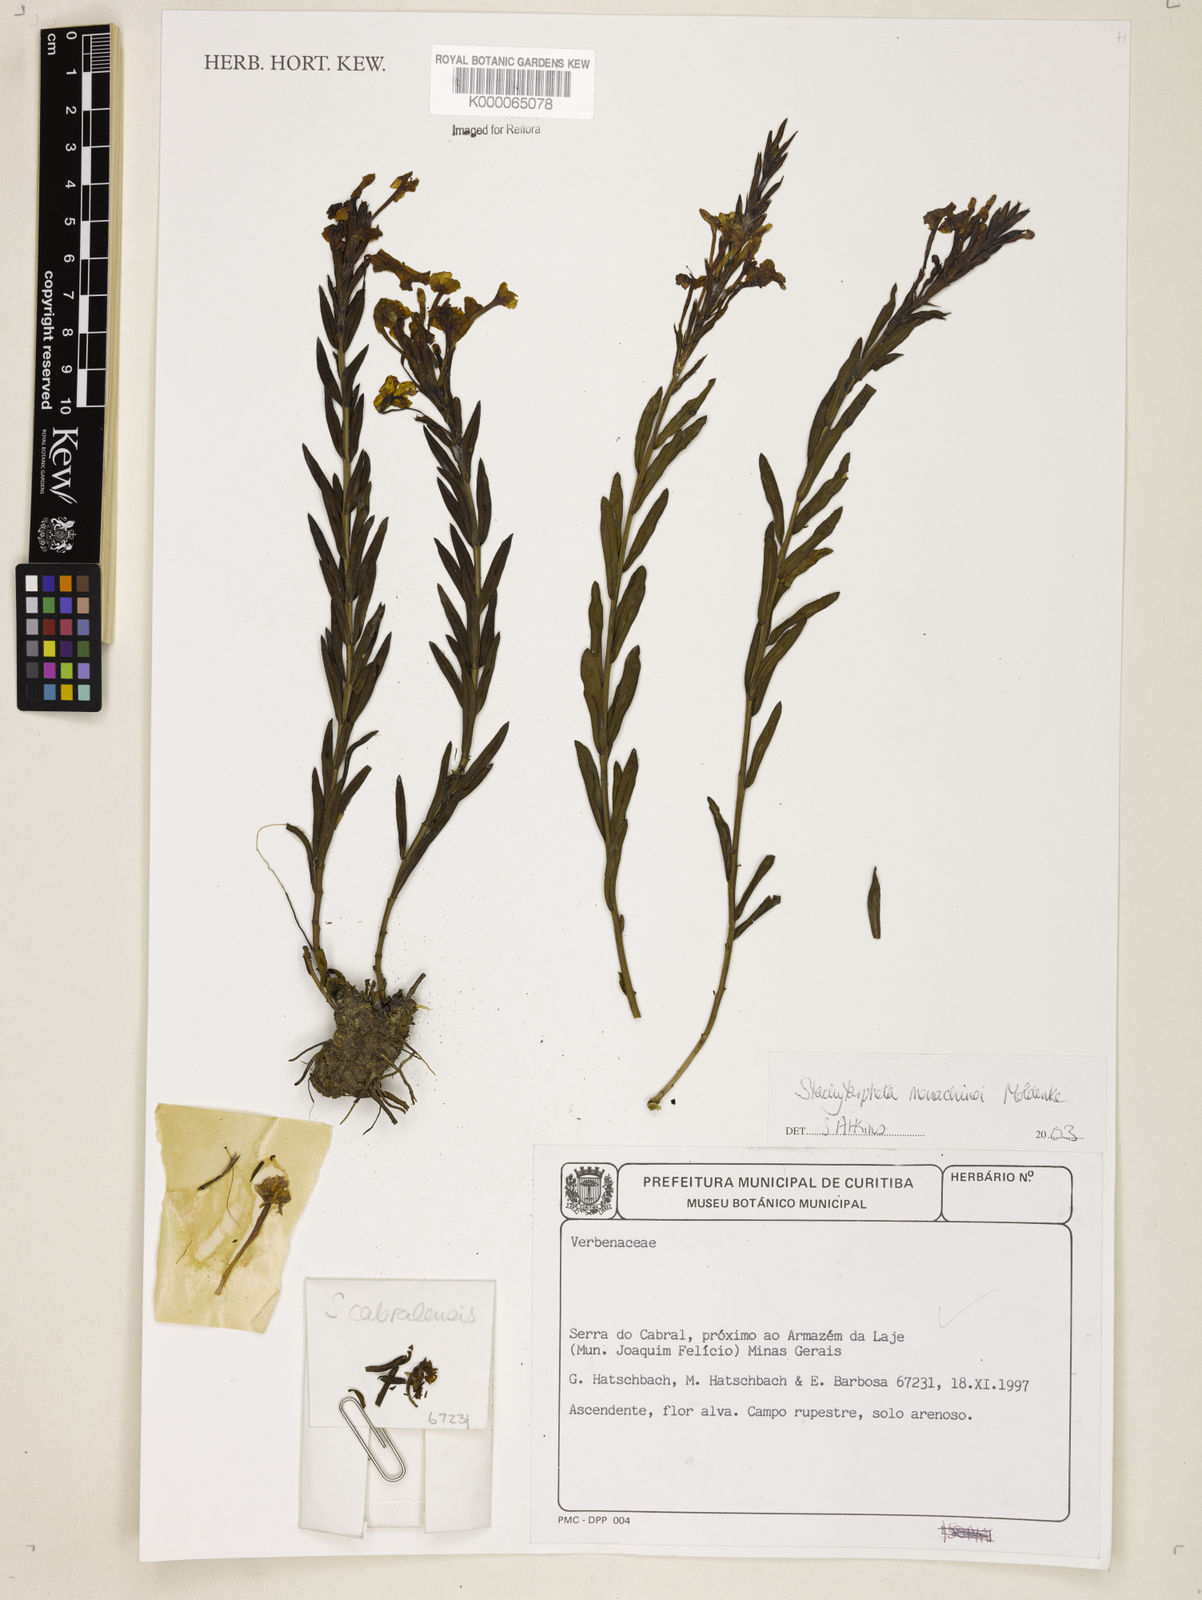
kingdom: Plantae
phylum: Tracheophyta
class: Magnoliopsida
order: Lamiales
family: Verbenaceae
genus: Stachytarpheta
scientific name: Stachytarpheta
